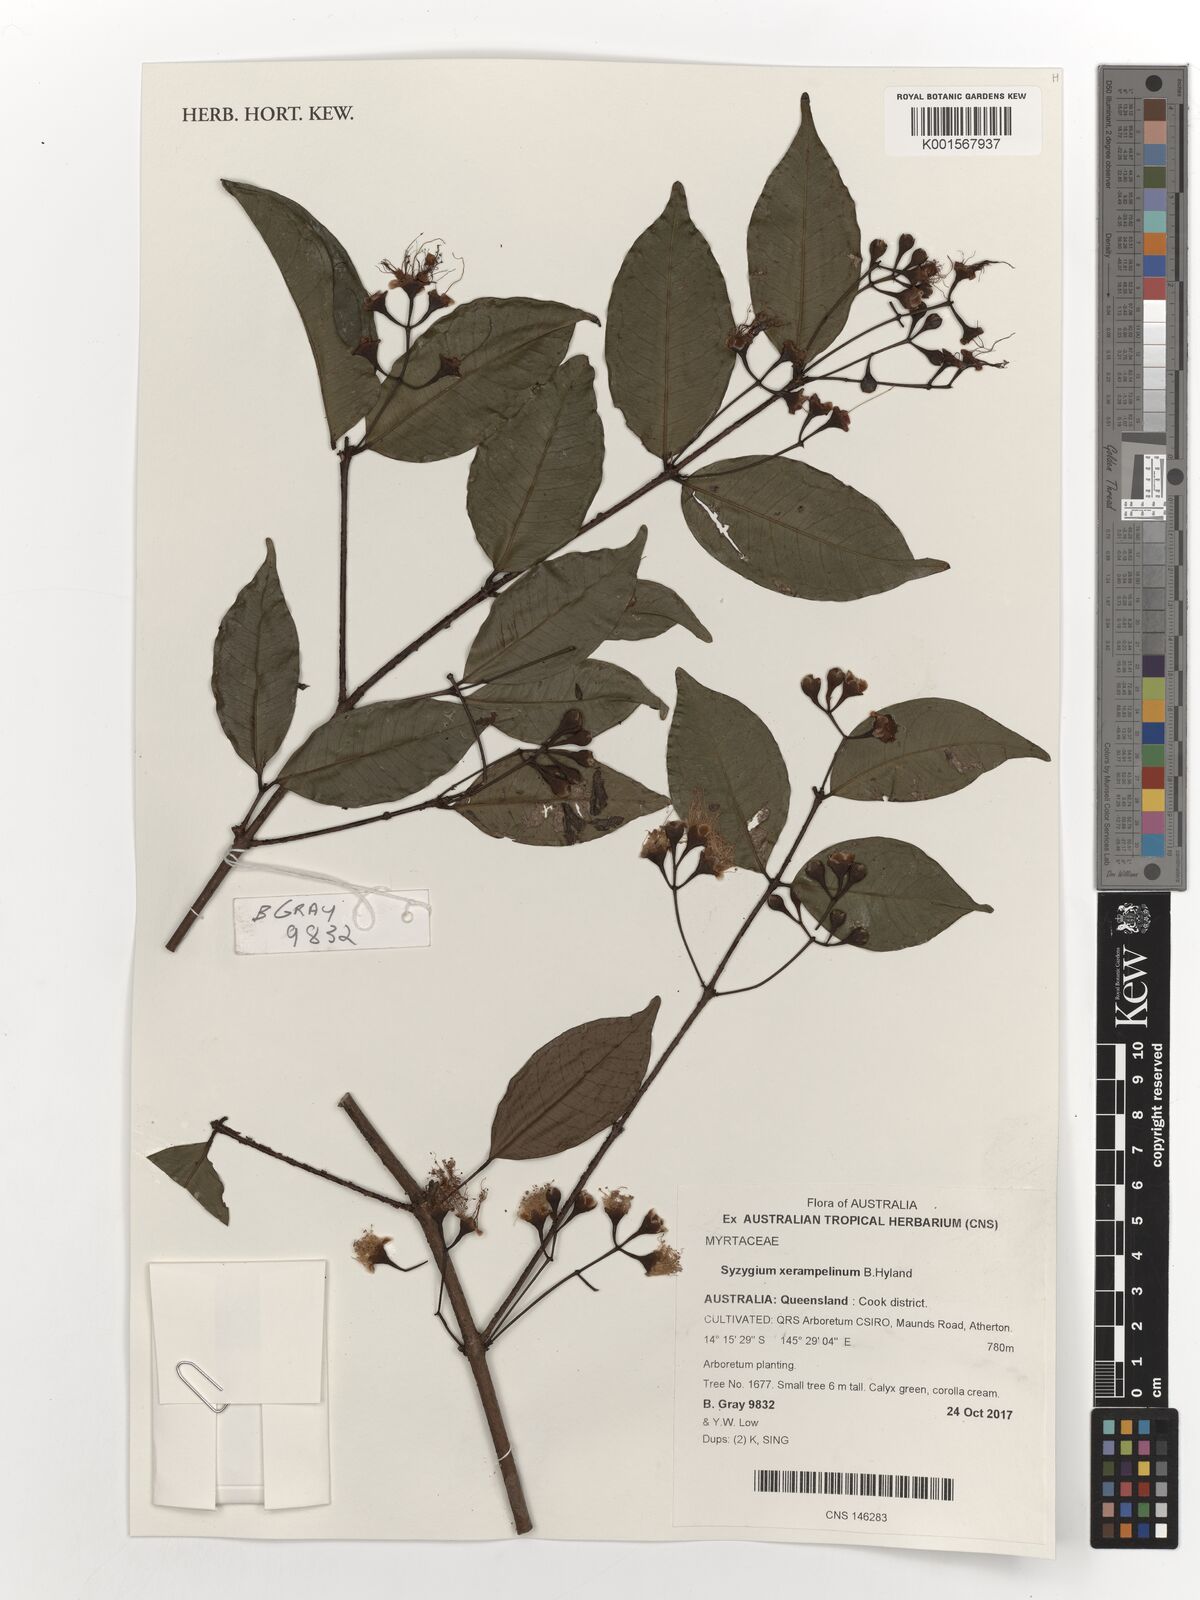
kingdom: Plantae
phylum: Tracheophyta
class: Magnoliopsida
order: Myrtales
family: Myrtaceae
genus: Syzygium
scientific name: Syzygium xerampelinum
